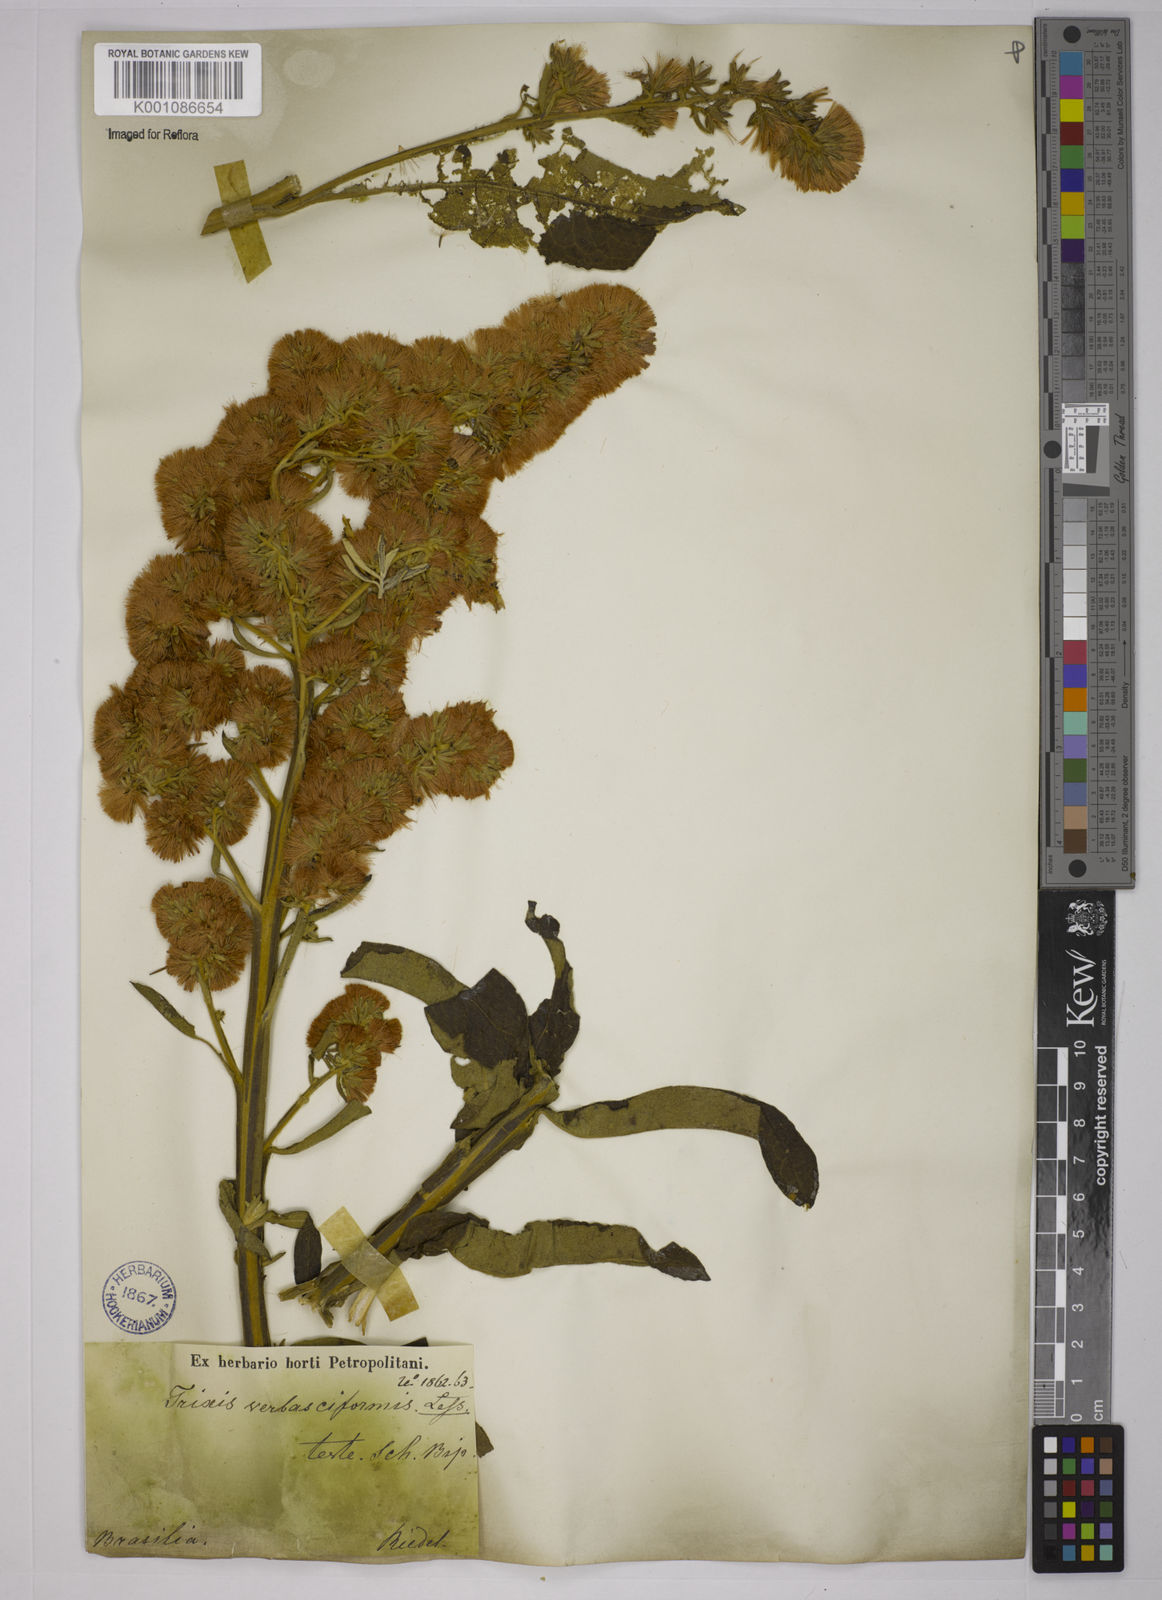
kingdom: Plantae
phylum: Tracheophyta
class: Magnoliopsida
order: Asterales
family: Asteraceae
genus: Trixis
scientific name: Trixis nobilis
